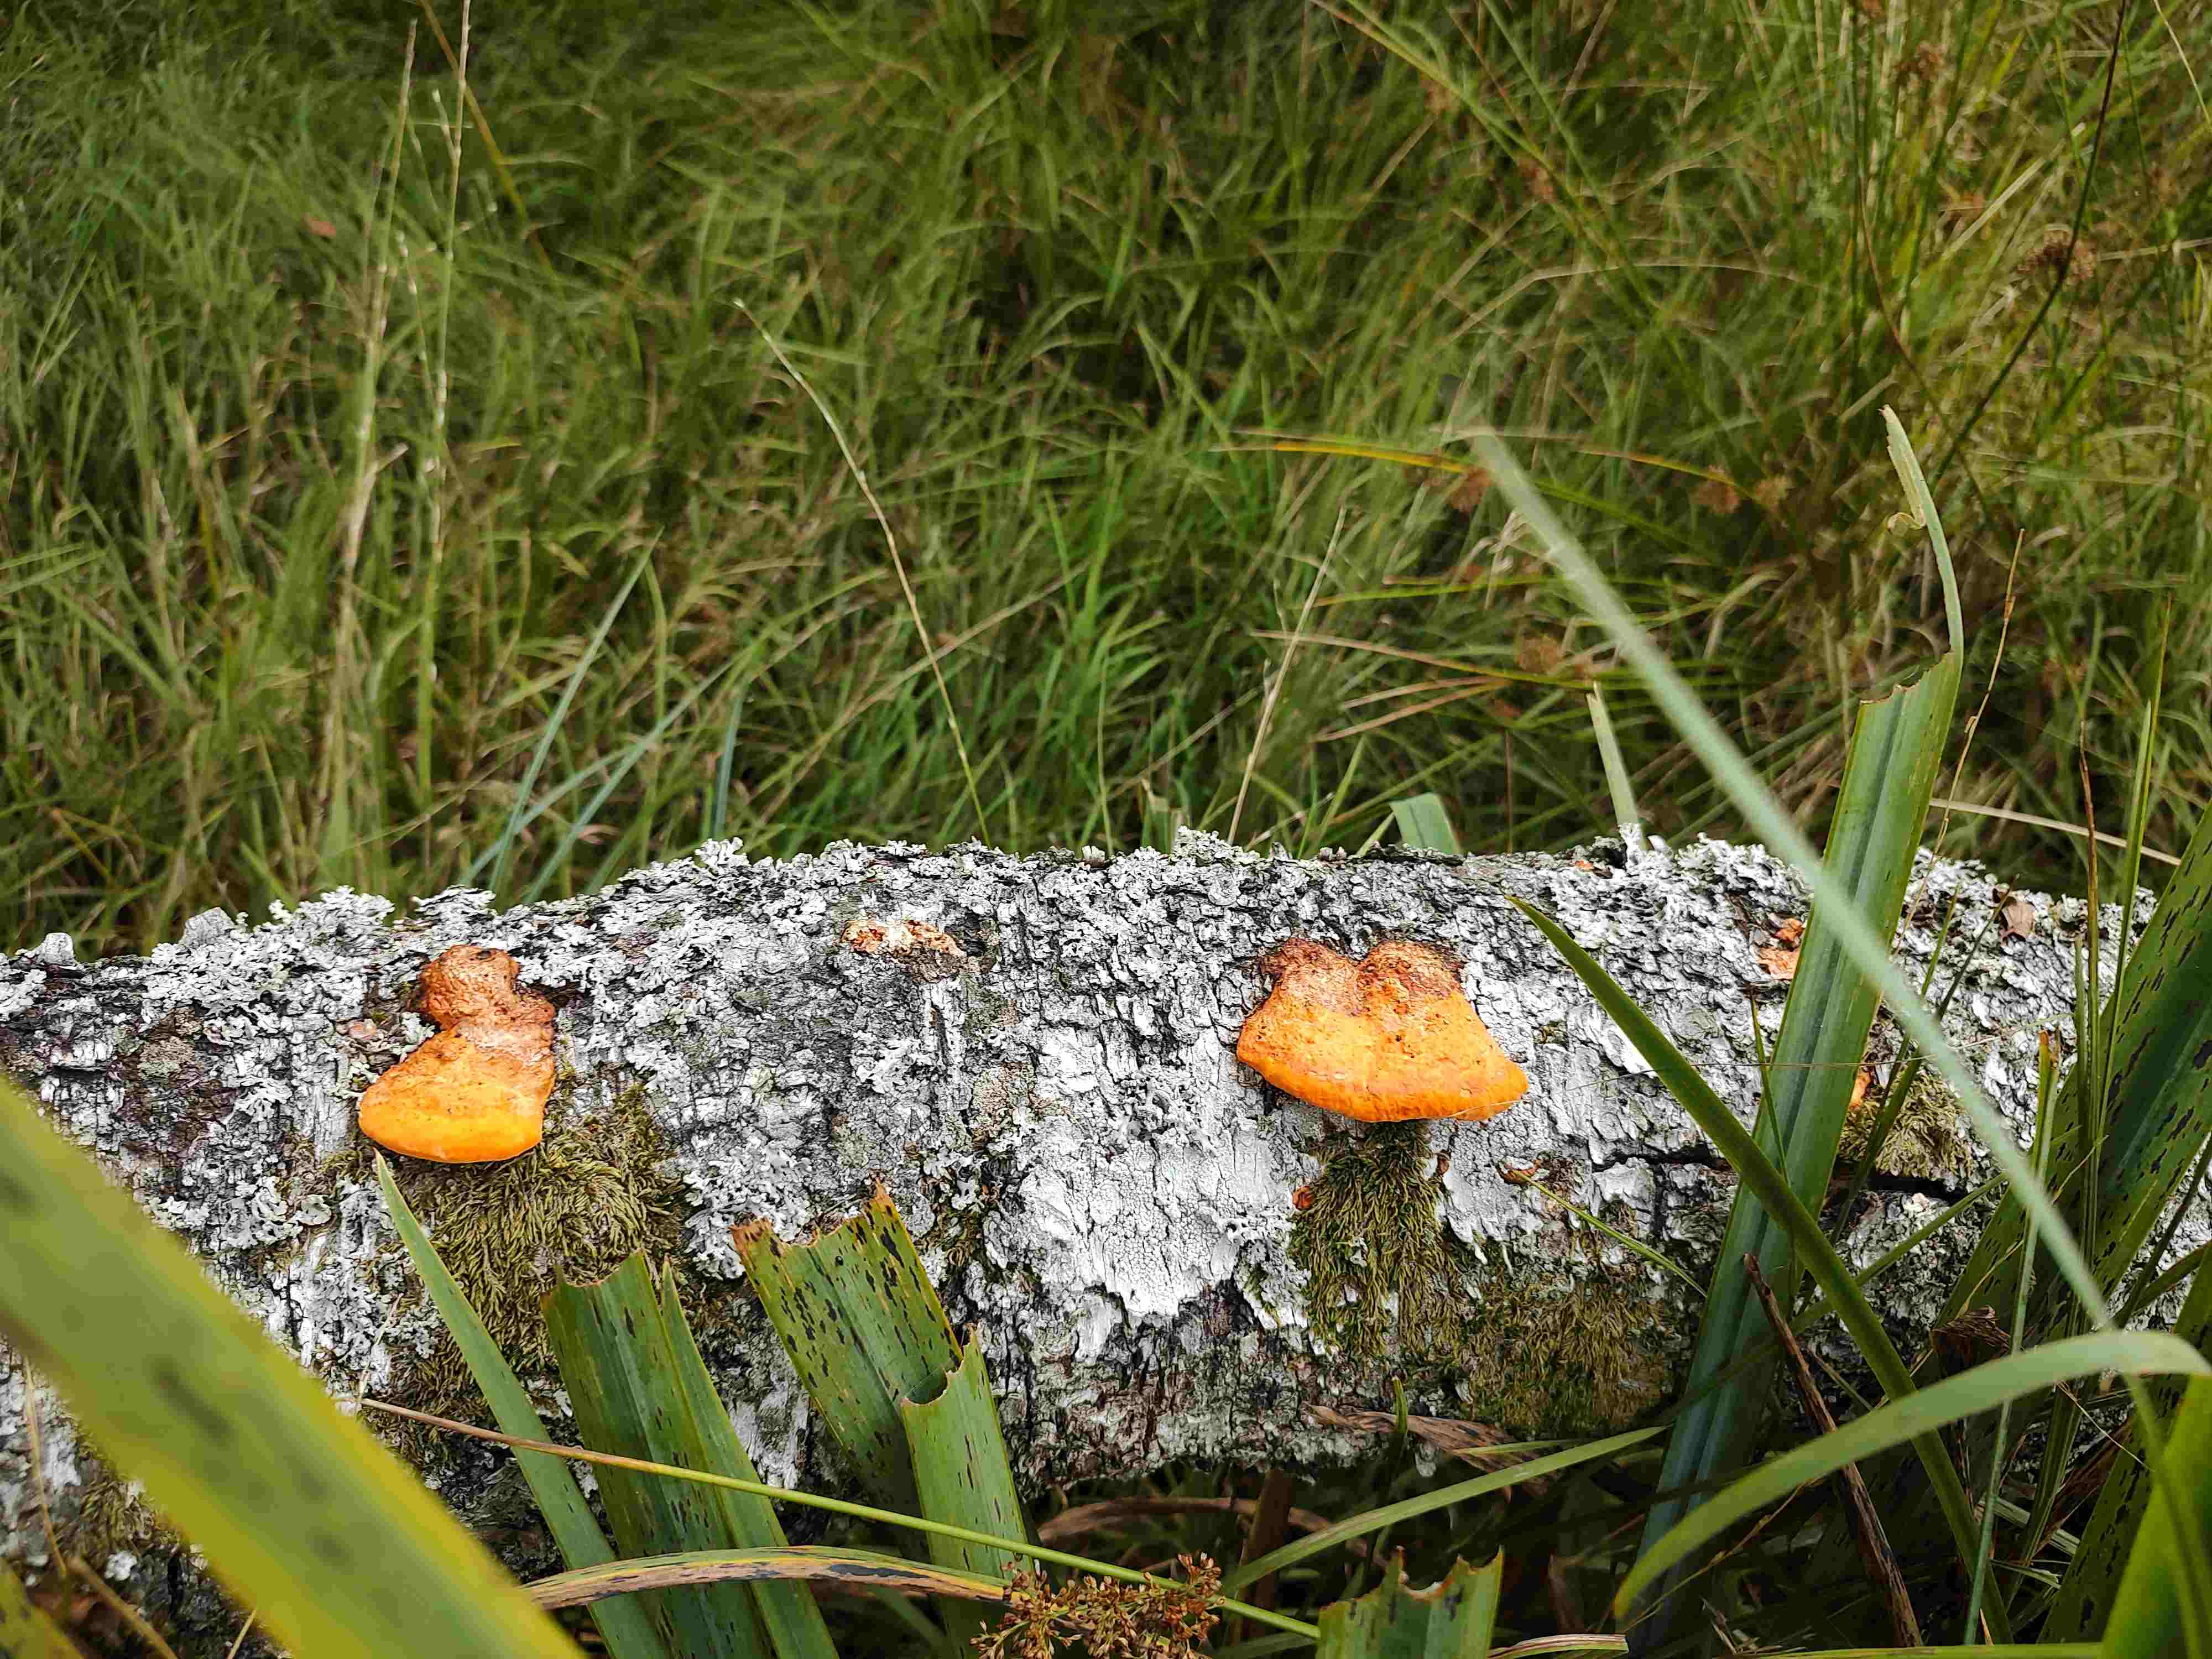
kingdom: Fungi
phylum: Basidiomycota
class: Agaricomycetes
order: Polyporales
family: Polyporaceae
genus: Trametes
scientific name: Trametes cinnabarina
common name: cinnoberporesvamp
